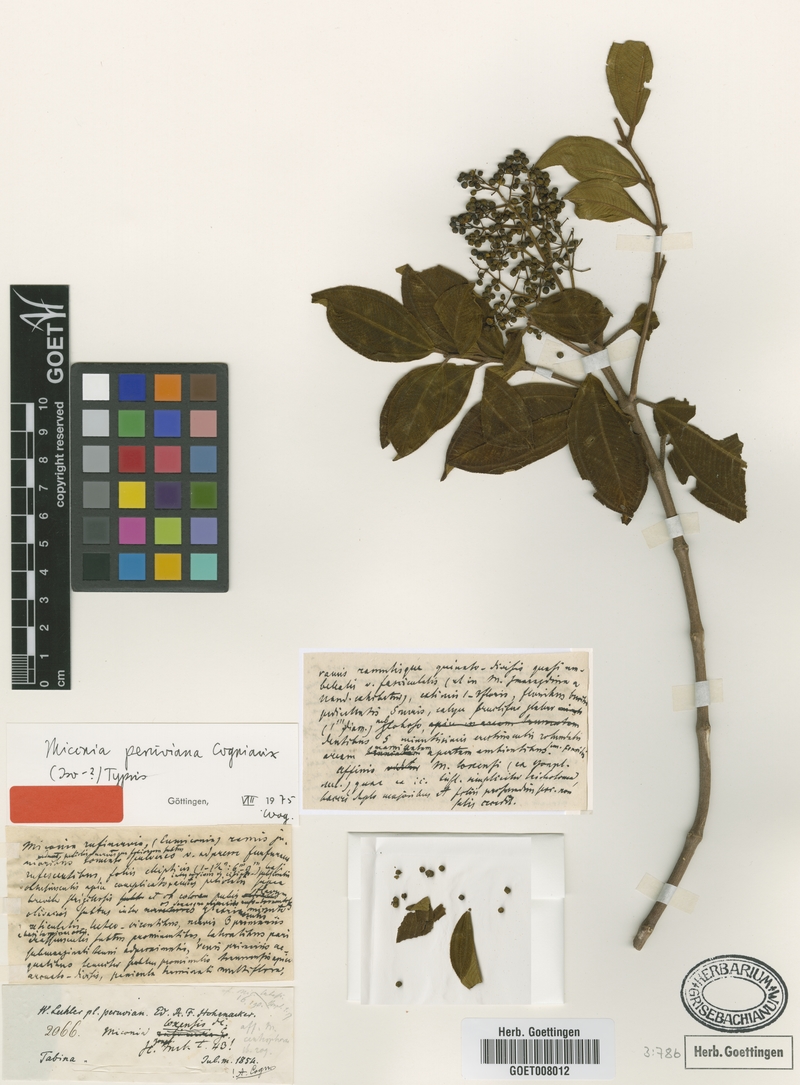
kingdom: Plantae
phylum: Tracheophyta
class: Magnoliopsida
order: Myrtales
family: Melastomataceae
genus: Miconia
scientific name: Miconia fabianiana
